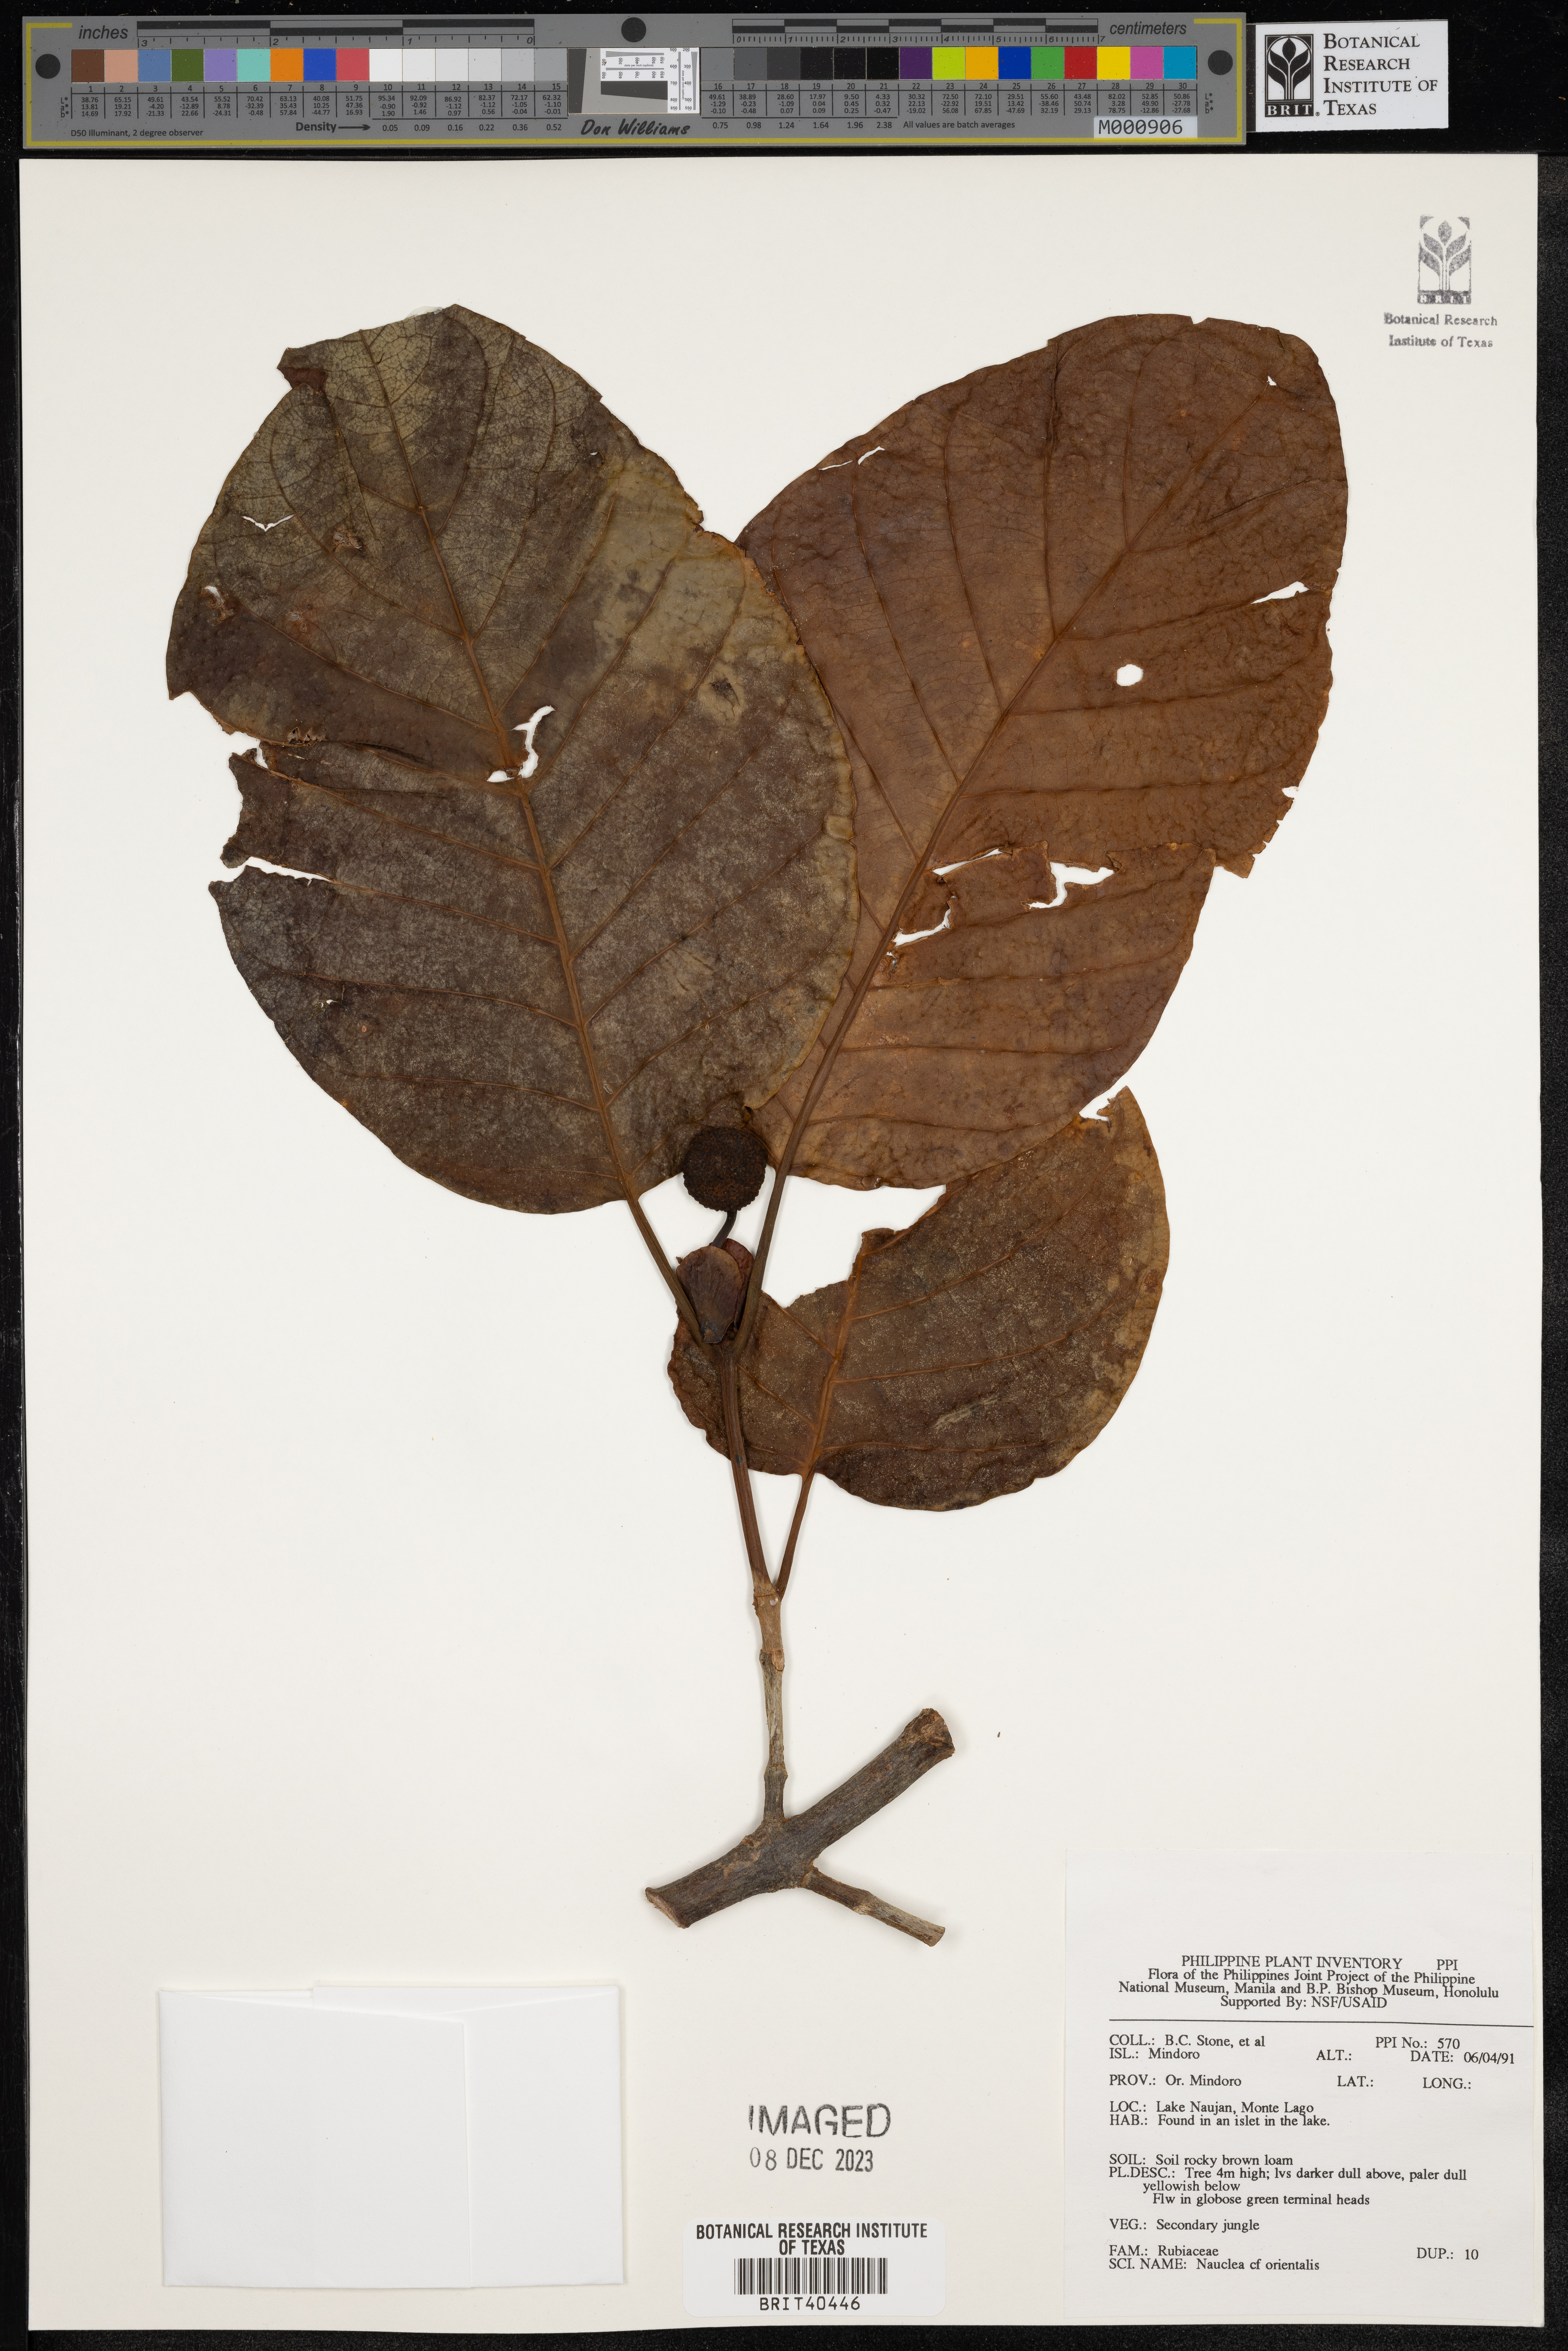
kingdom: Plantae
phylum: Tracheophyta
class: Magnoliopsida
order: Gentianales
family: Rubiaceae
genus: Nauclea
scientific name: Nauclea orientalis
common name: Leichhardt-pine
